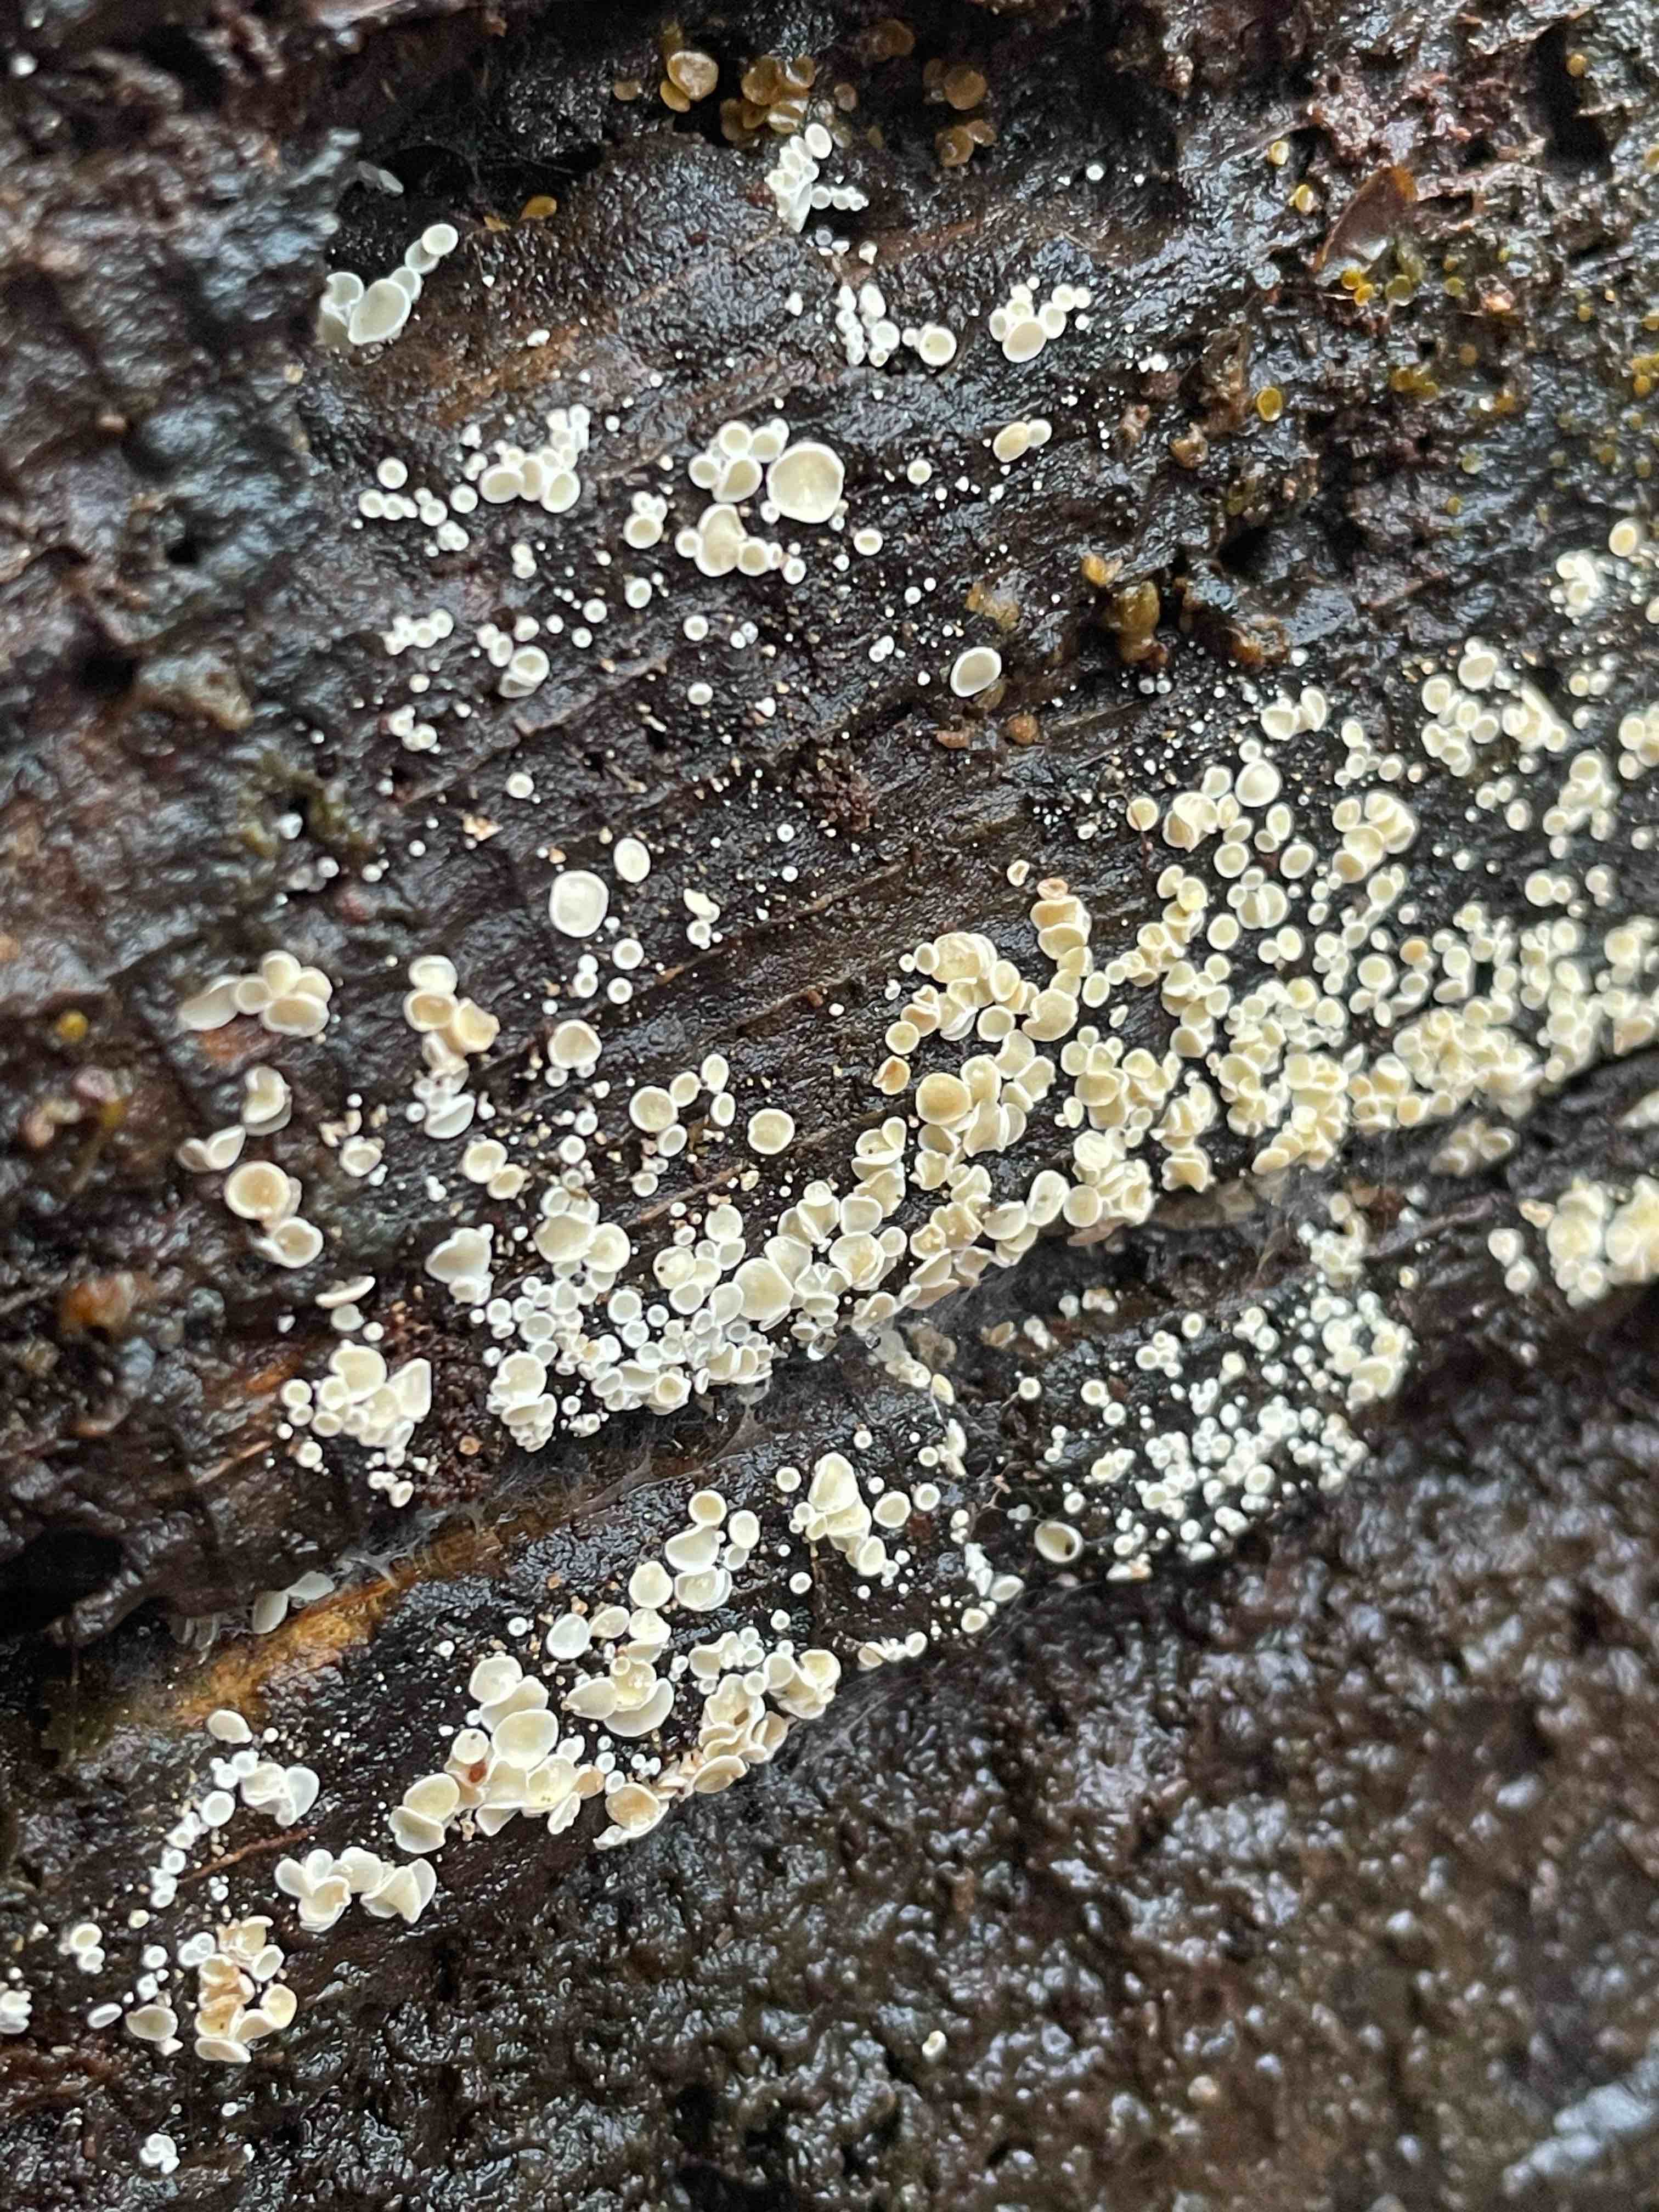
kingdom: Fungi
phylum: Ascomycota
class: Leotiomycetes
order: Helotiales
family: Lachnaceae
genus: Lachnum
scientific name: Lachnum
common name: frynseskive
